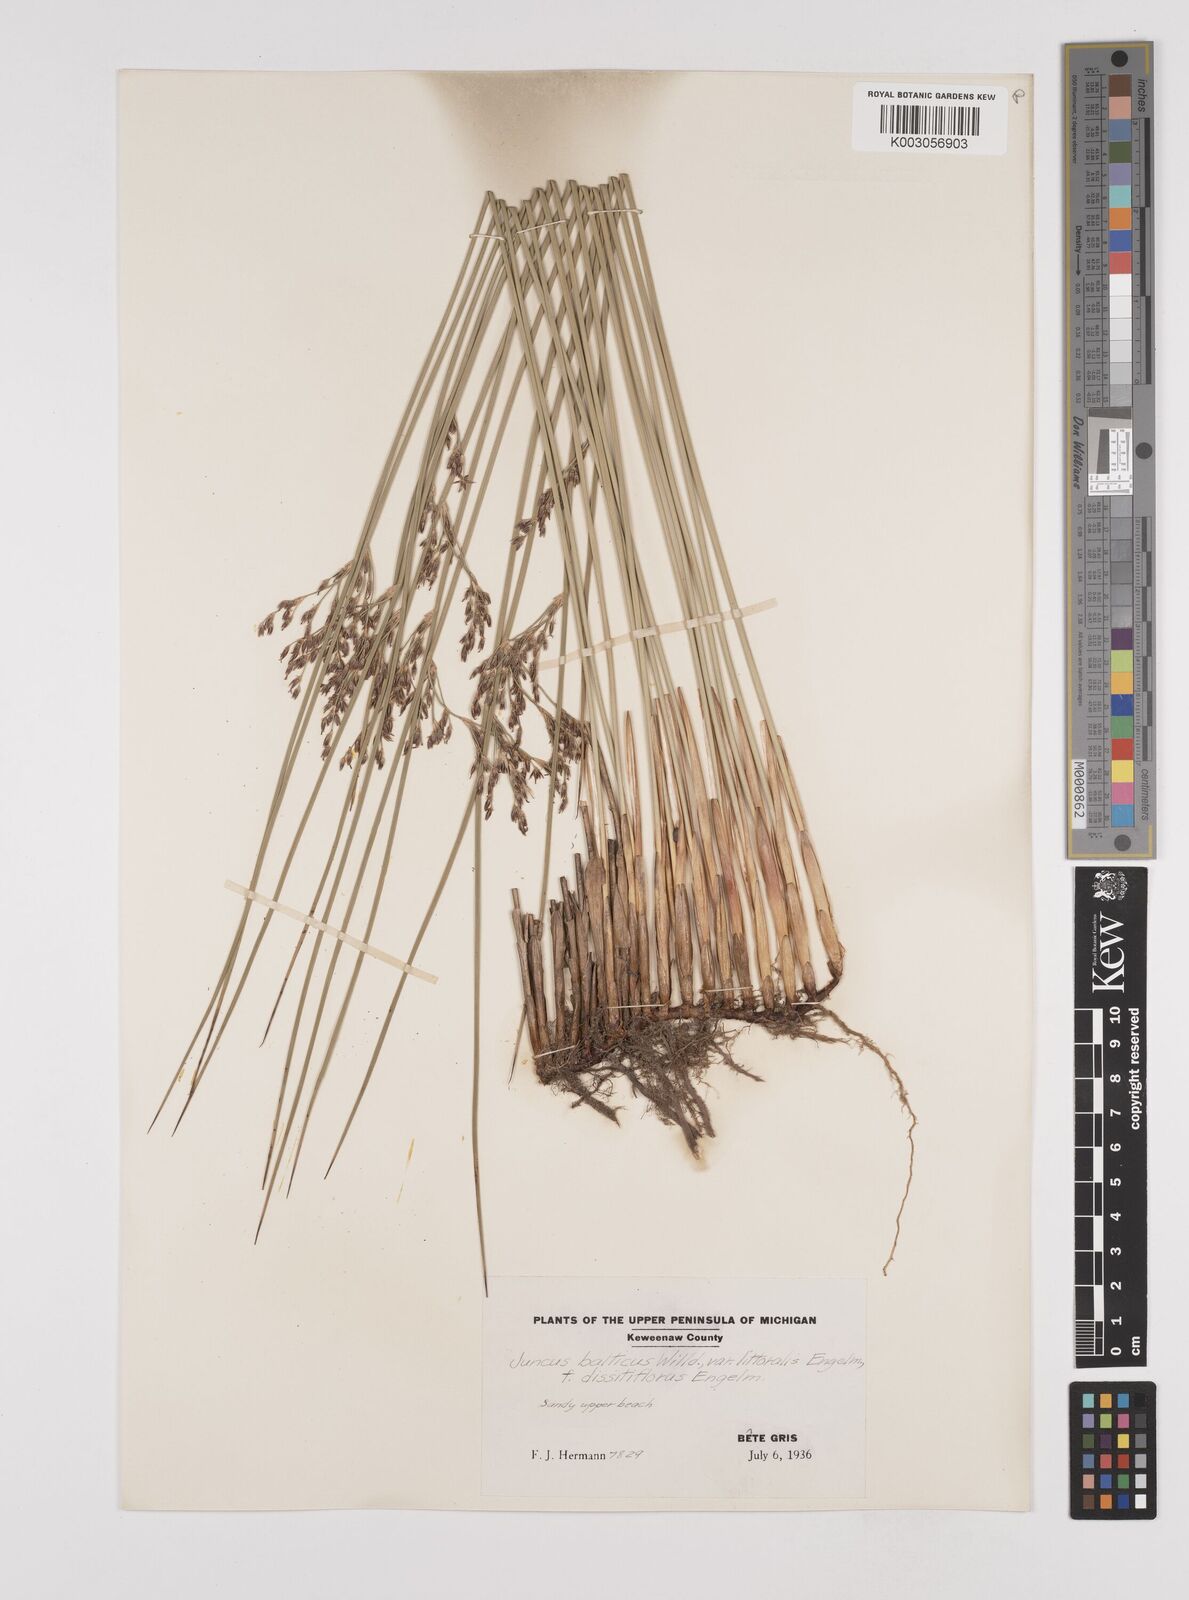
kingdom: Plantae
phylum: Tracheophyta
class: Liliopsida
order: Poales
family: Juncaceae
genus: Juncus
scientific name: Juncus balticus
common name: Baltic rush
